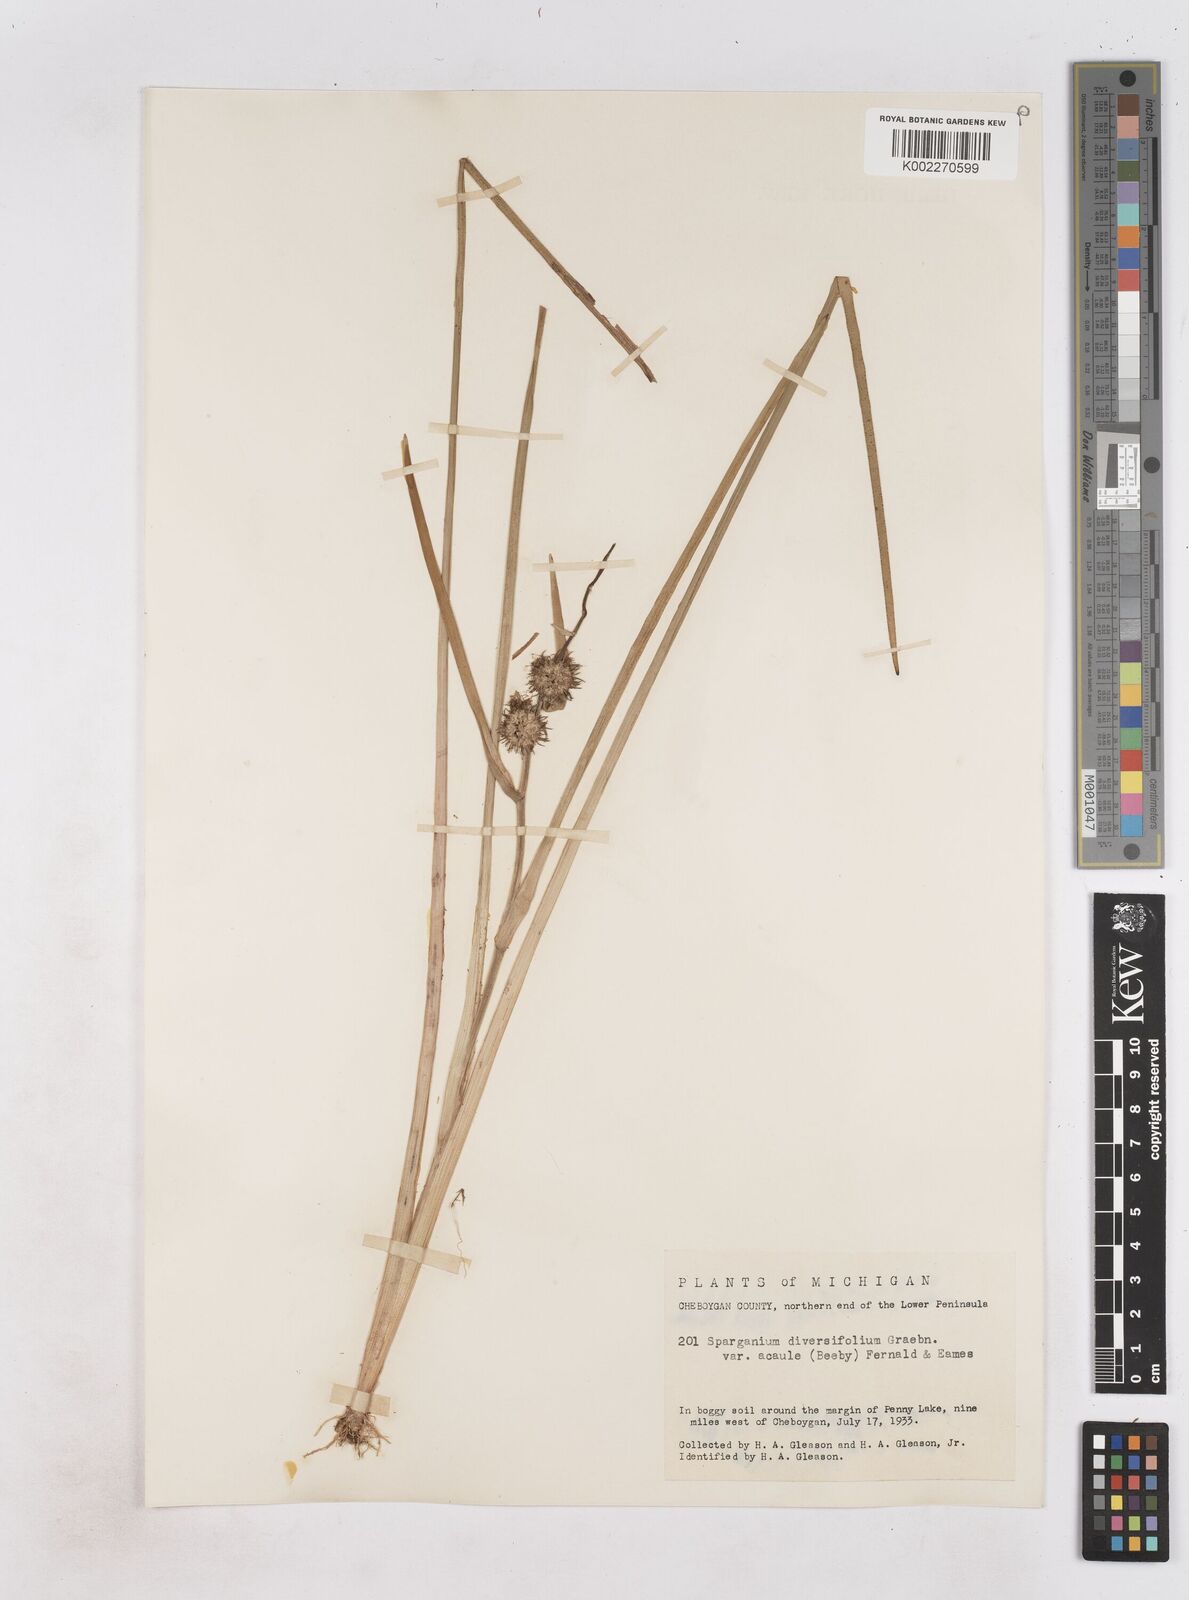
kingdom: Plantae
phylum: Tracheophyta
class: Liliopsida
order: Poales
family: Typhaceae
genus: Sparganium
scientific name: Sparganium emersum
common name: Unbranched bur-reed
